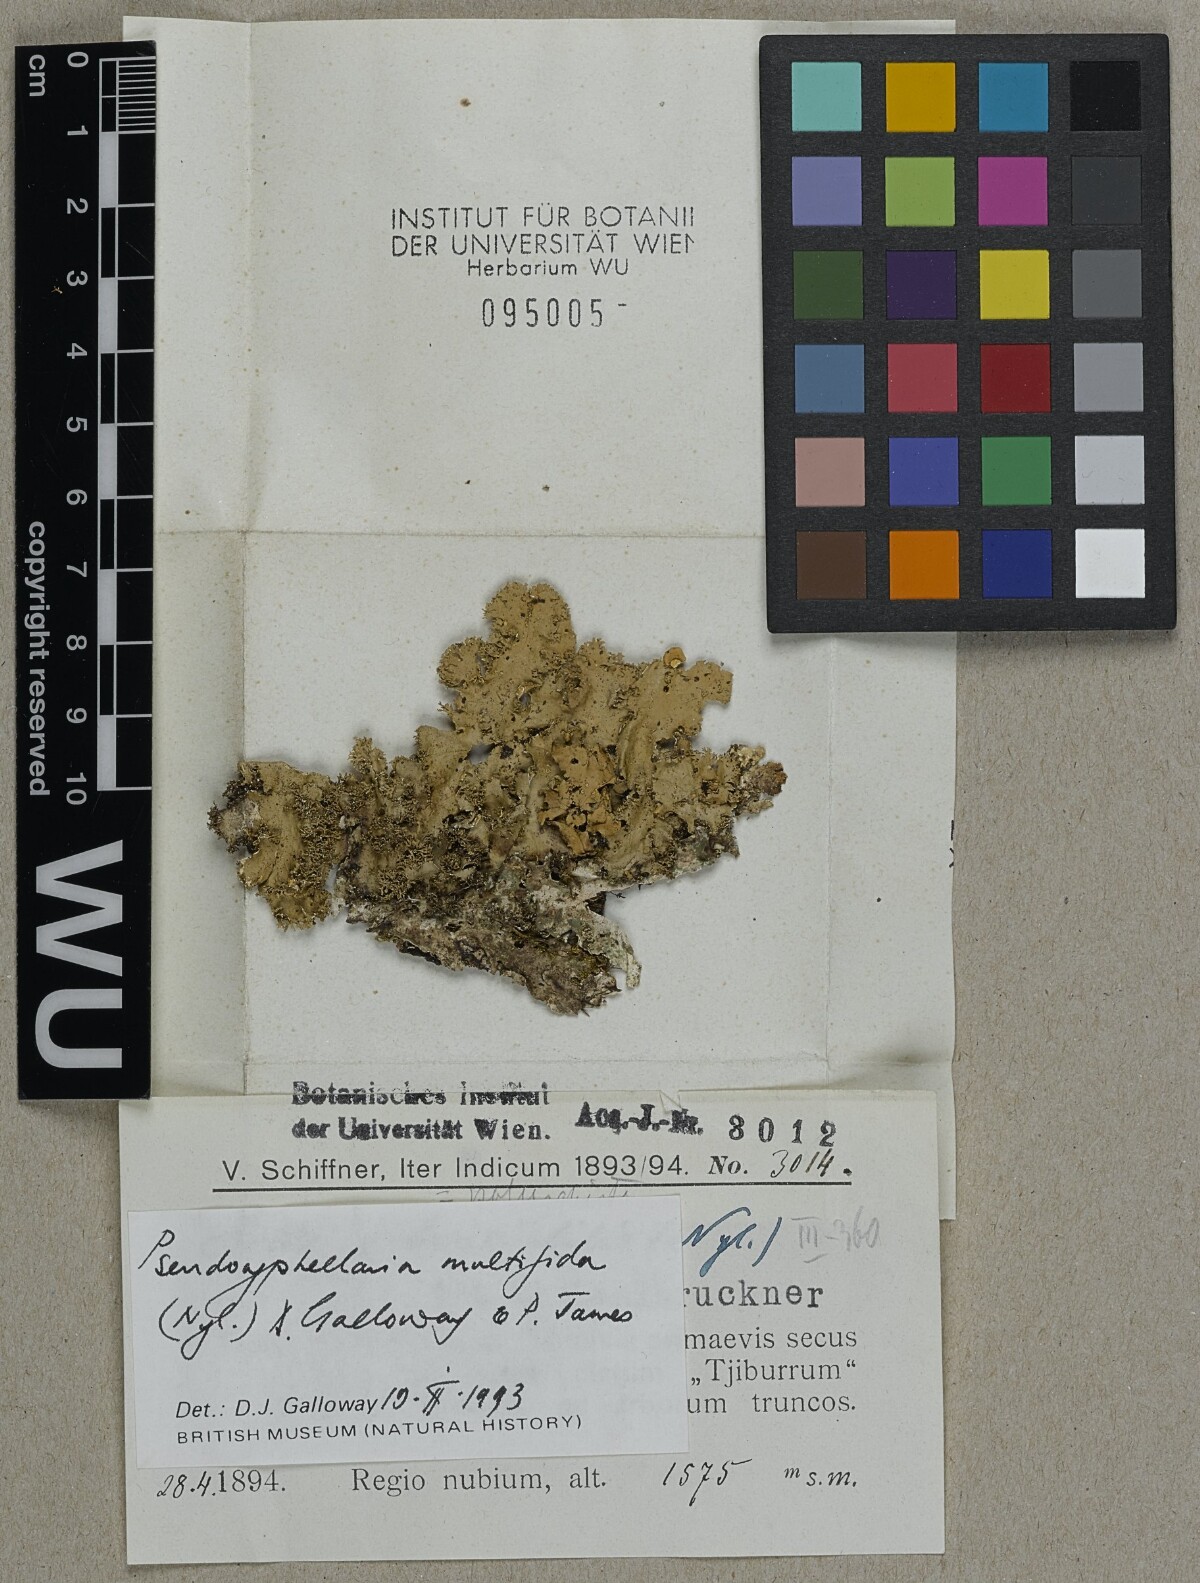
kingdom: Fungi
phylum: Ascomycota
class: Lecanoromycetes
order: Peltigerales
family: Lobariaceae
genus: Pseudocyphellaria
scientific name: Pseudocyphellaria multifida
